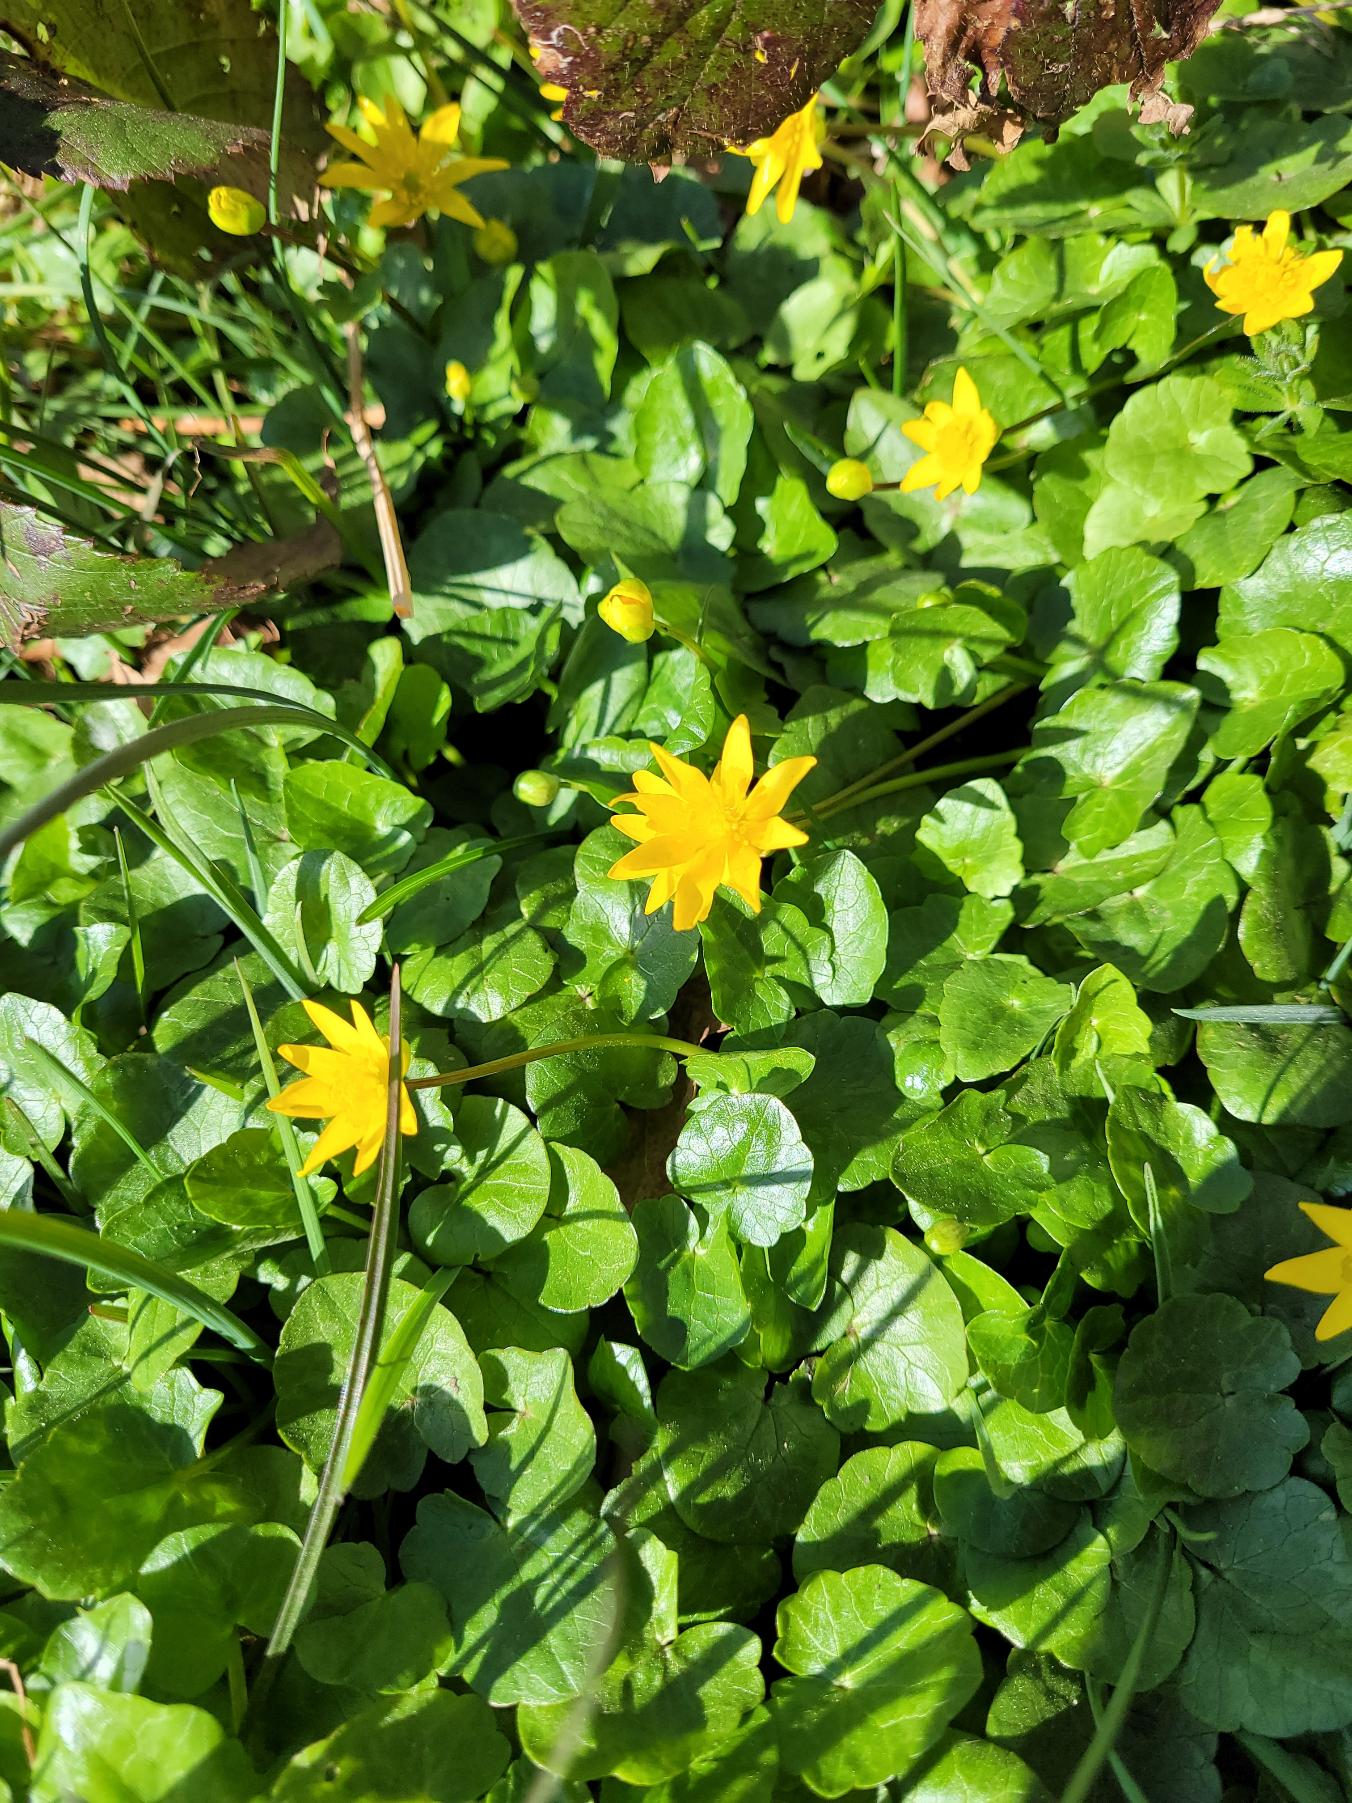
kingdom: Plantae
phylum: Tracheophyta
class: Magnoliopsida
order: Ranunculales
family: Ranunculaceae
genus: Ficaria
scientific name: Ficaria verna
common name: Vorterod
